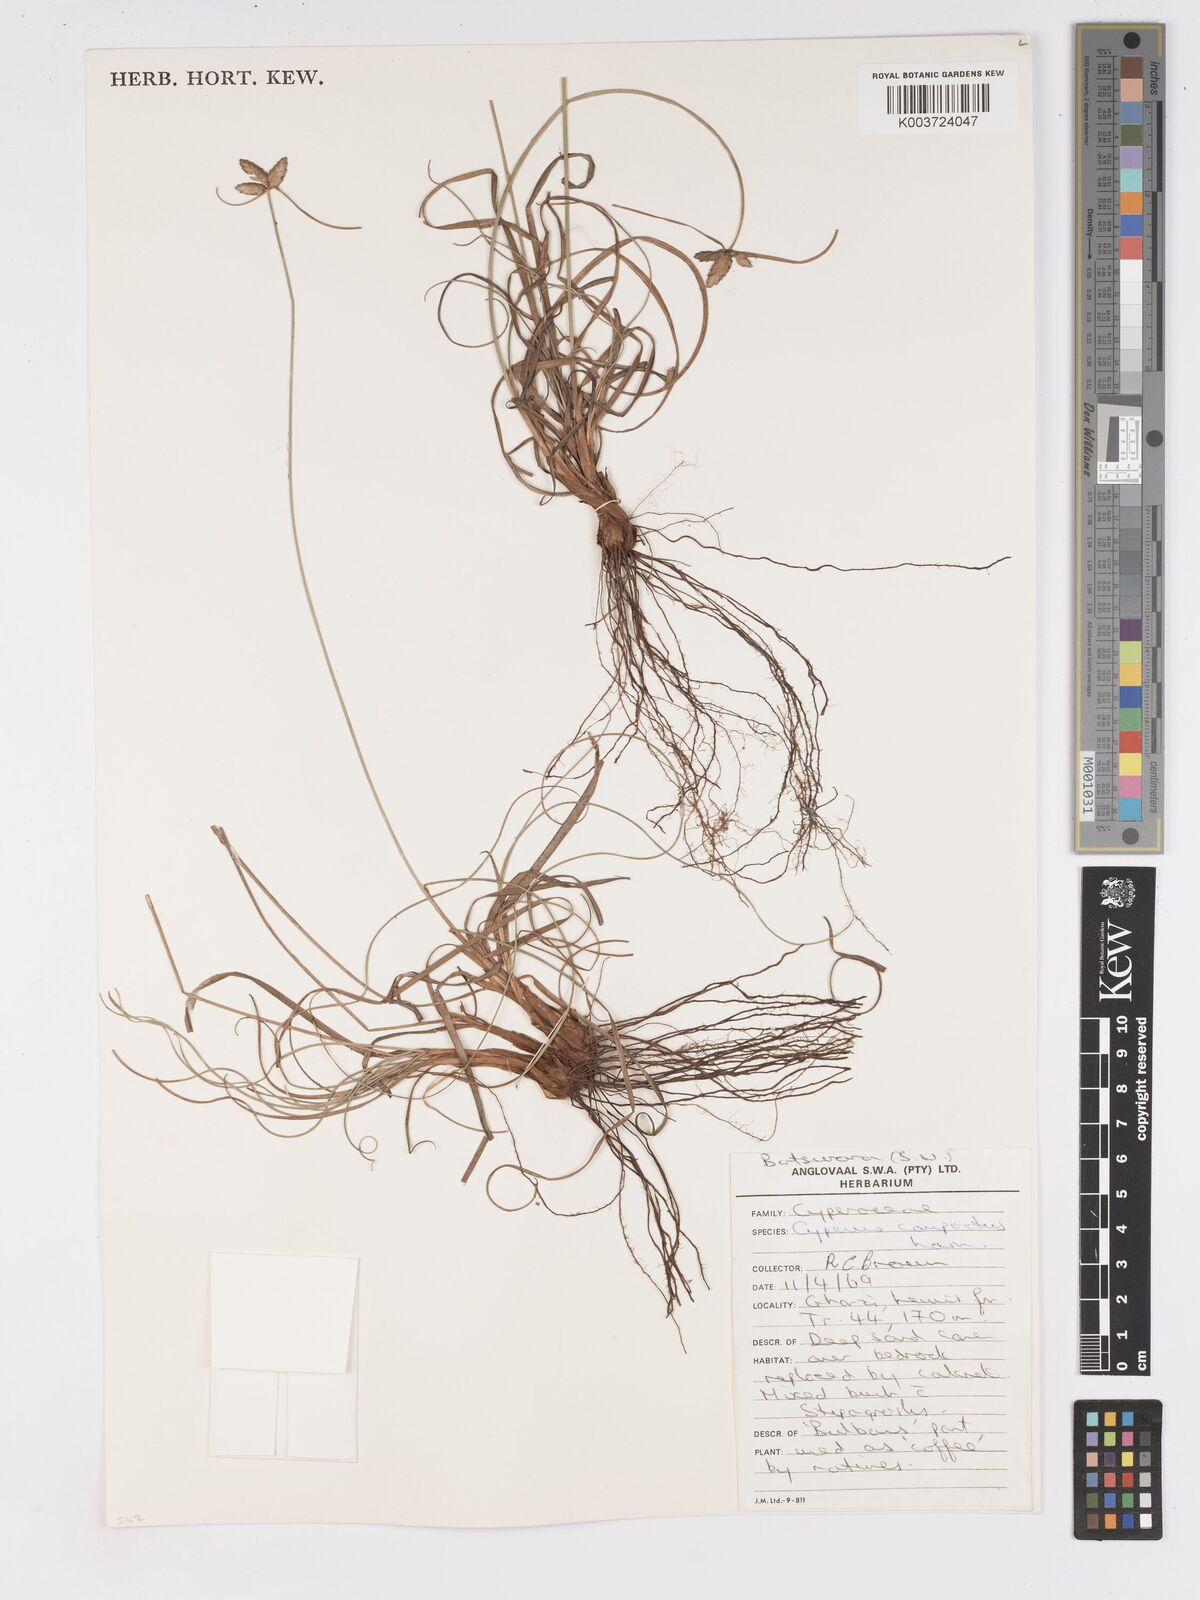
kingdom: Plantae
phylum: Tracheophyta
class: Liliopsida
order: Poales
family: Cyperaceae
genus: Cyperus
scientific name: Cyperus niveus
